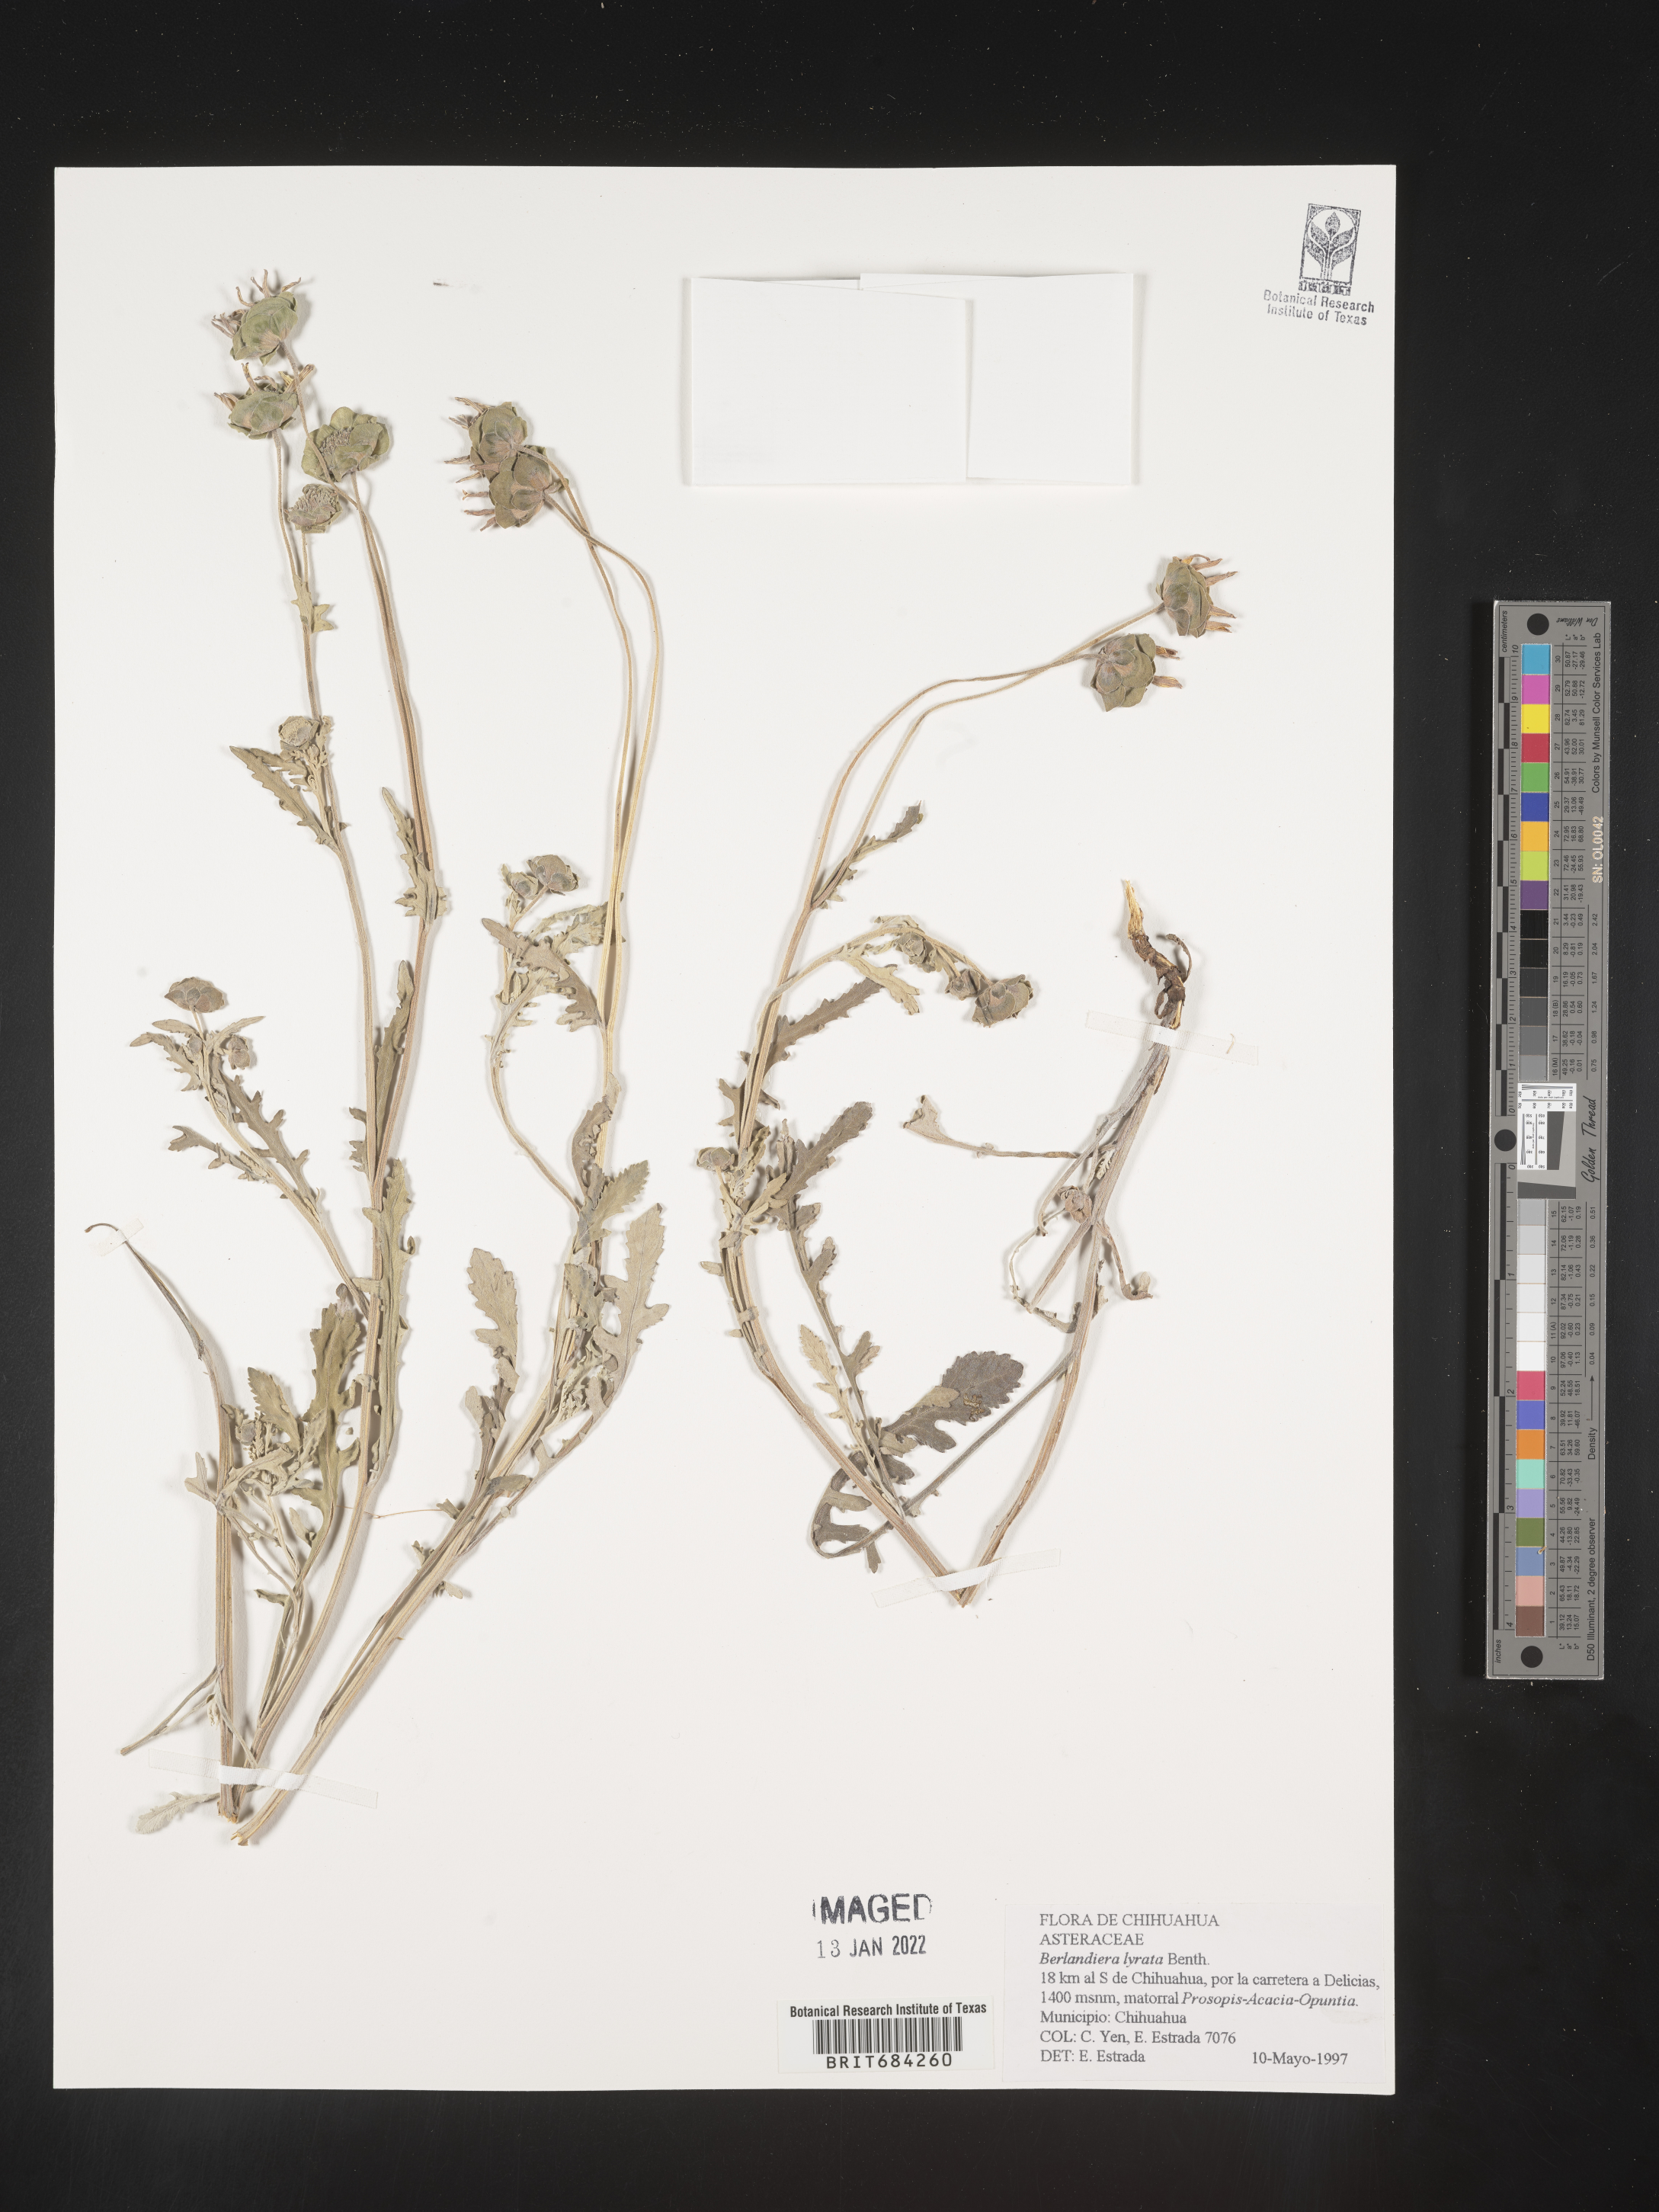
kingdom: Plantae
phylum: Tracheophyta
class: Magnoliopsida
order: Asterales
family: Asteraceae
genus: Berlandiera
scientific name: Berlandiera
